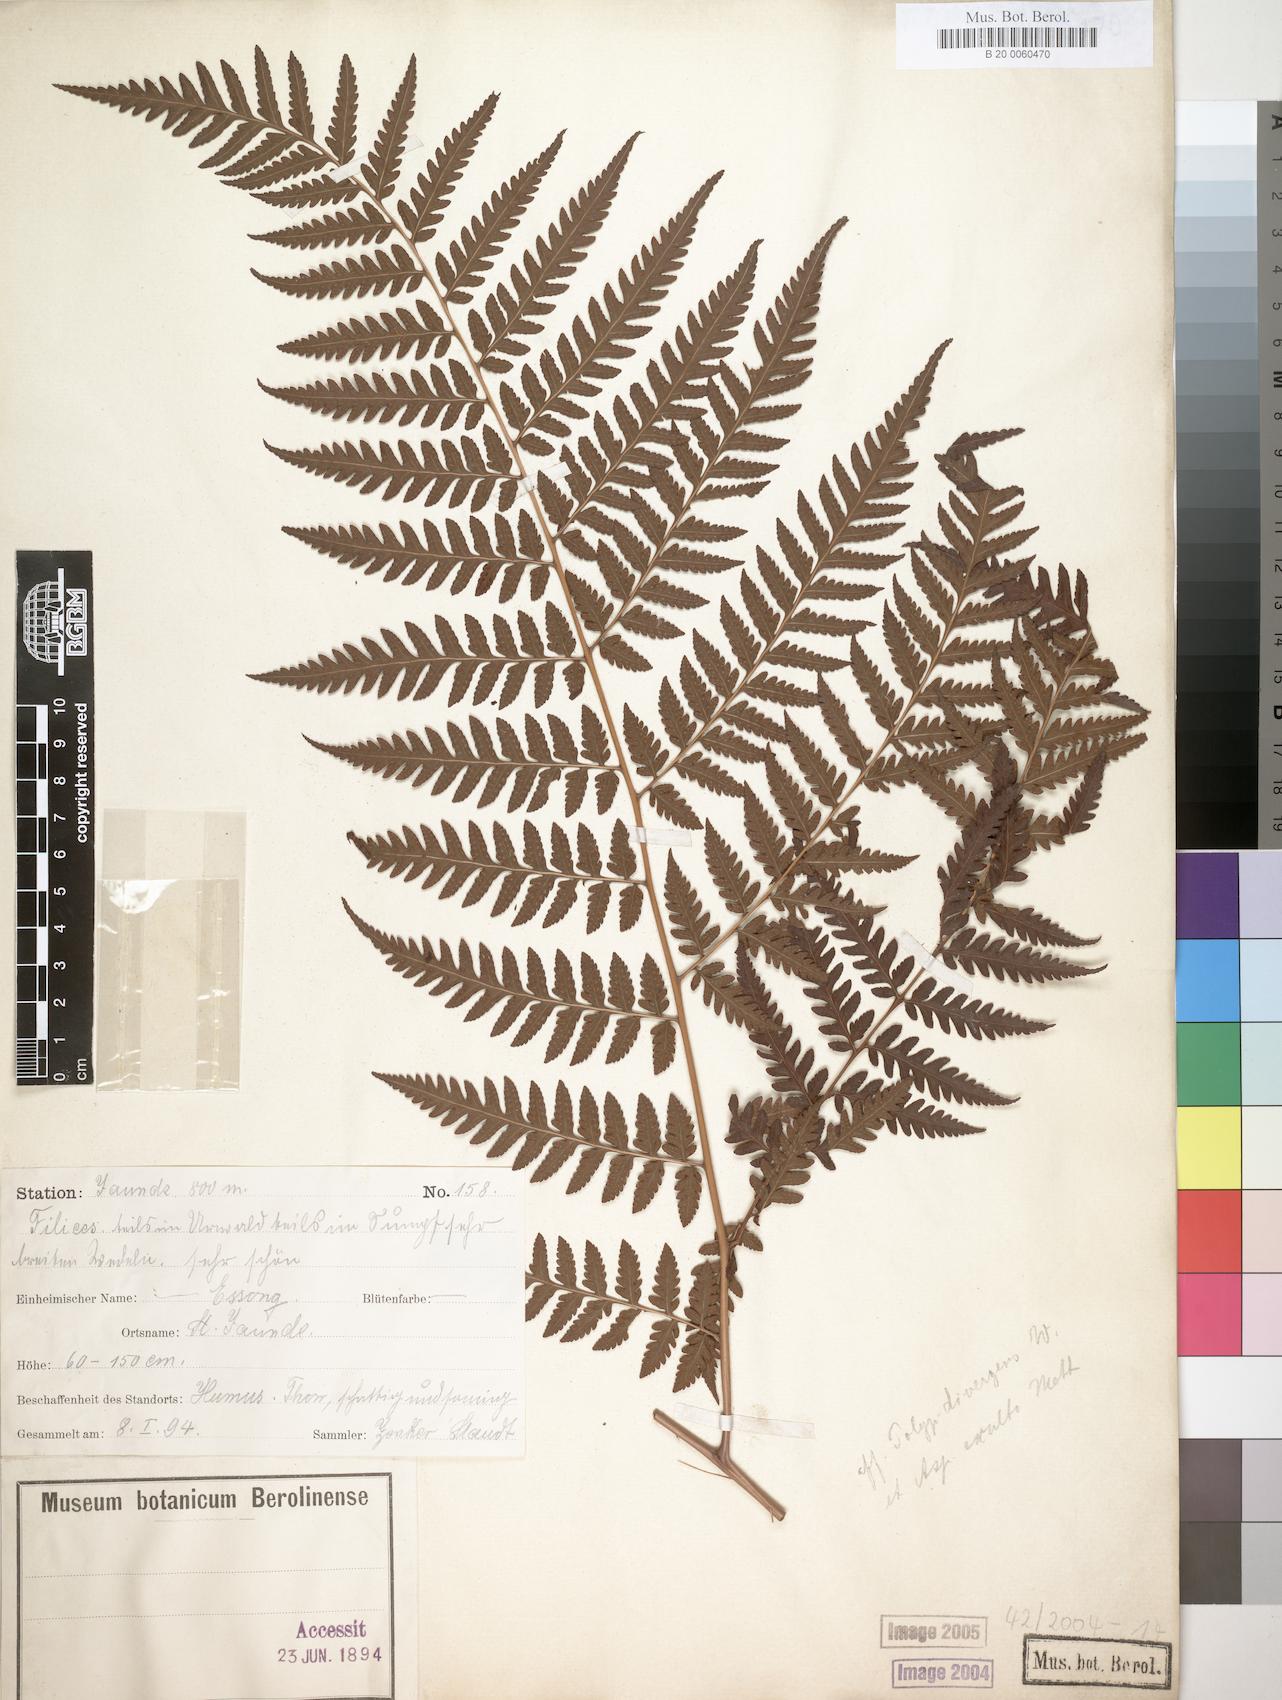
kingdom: Plantae
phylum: Tracheophyta
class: Polypodiopsida
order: Polypodiales
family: Dryopteridaceae
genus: Parapolystichum
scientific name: Parapolystichum nigritianum
